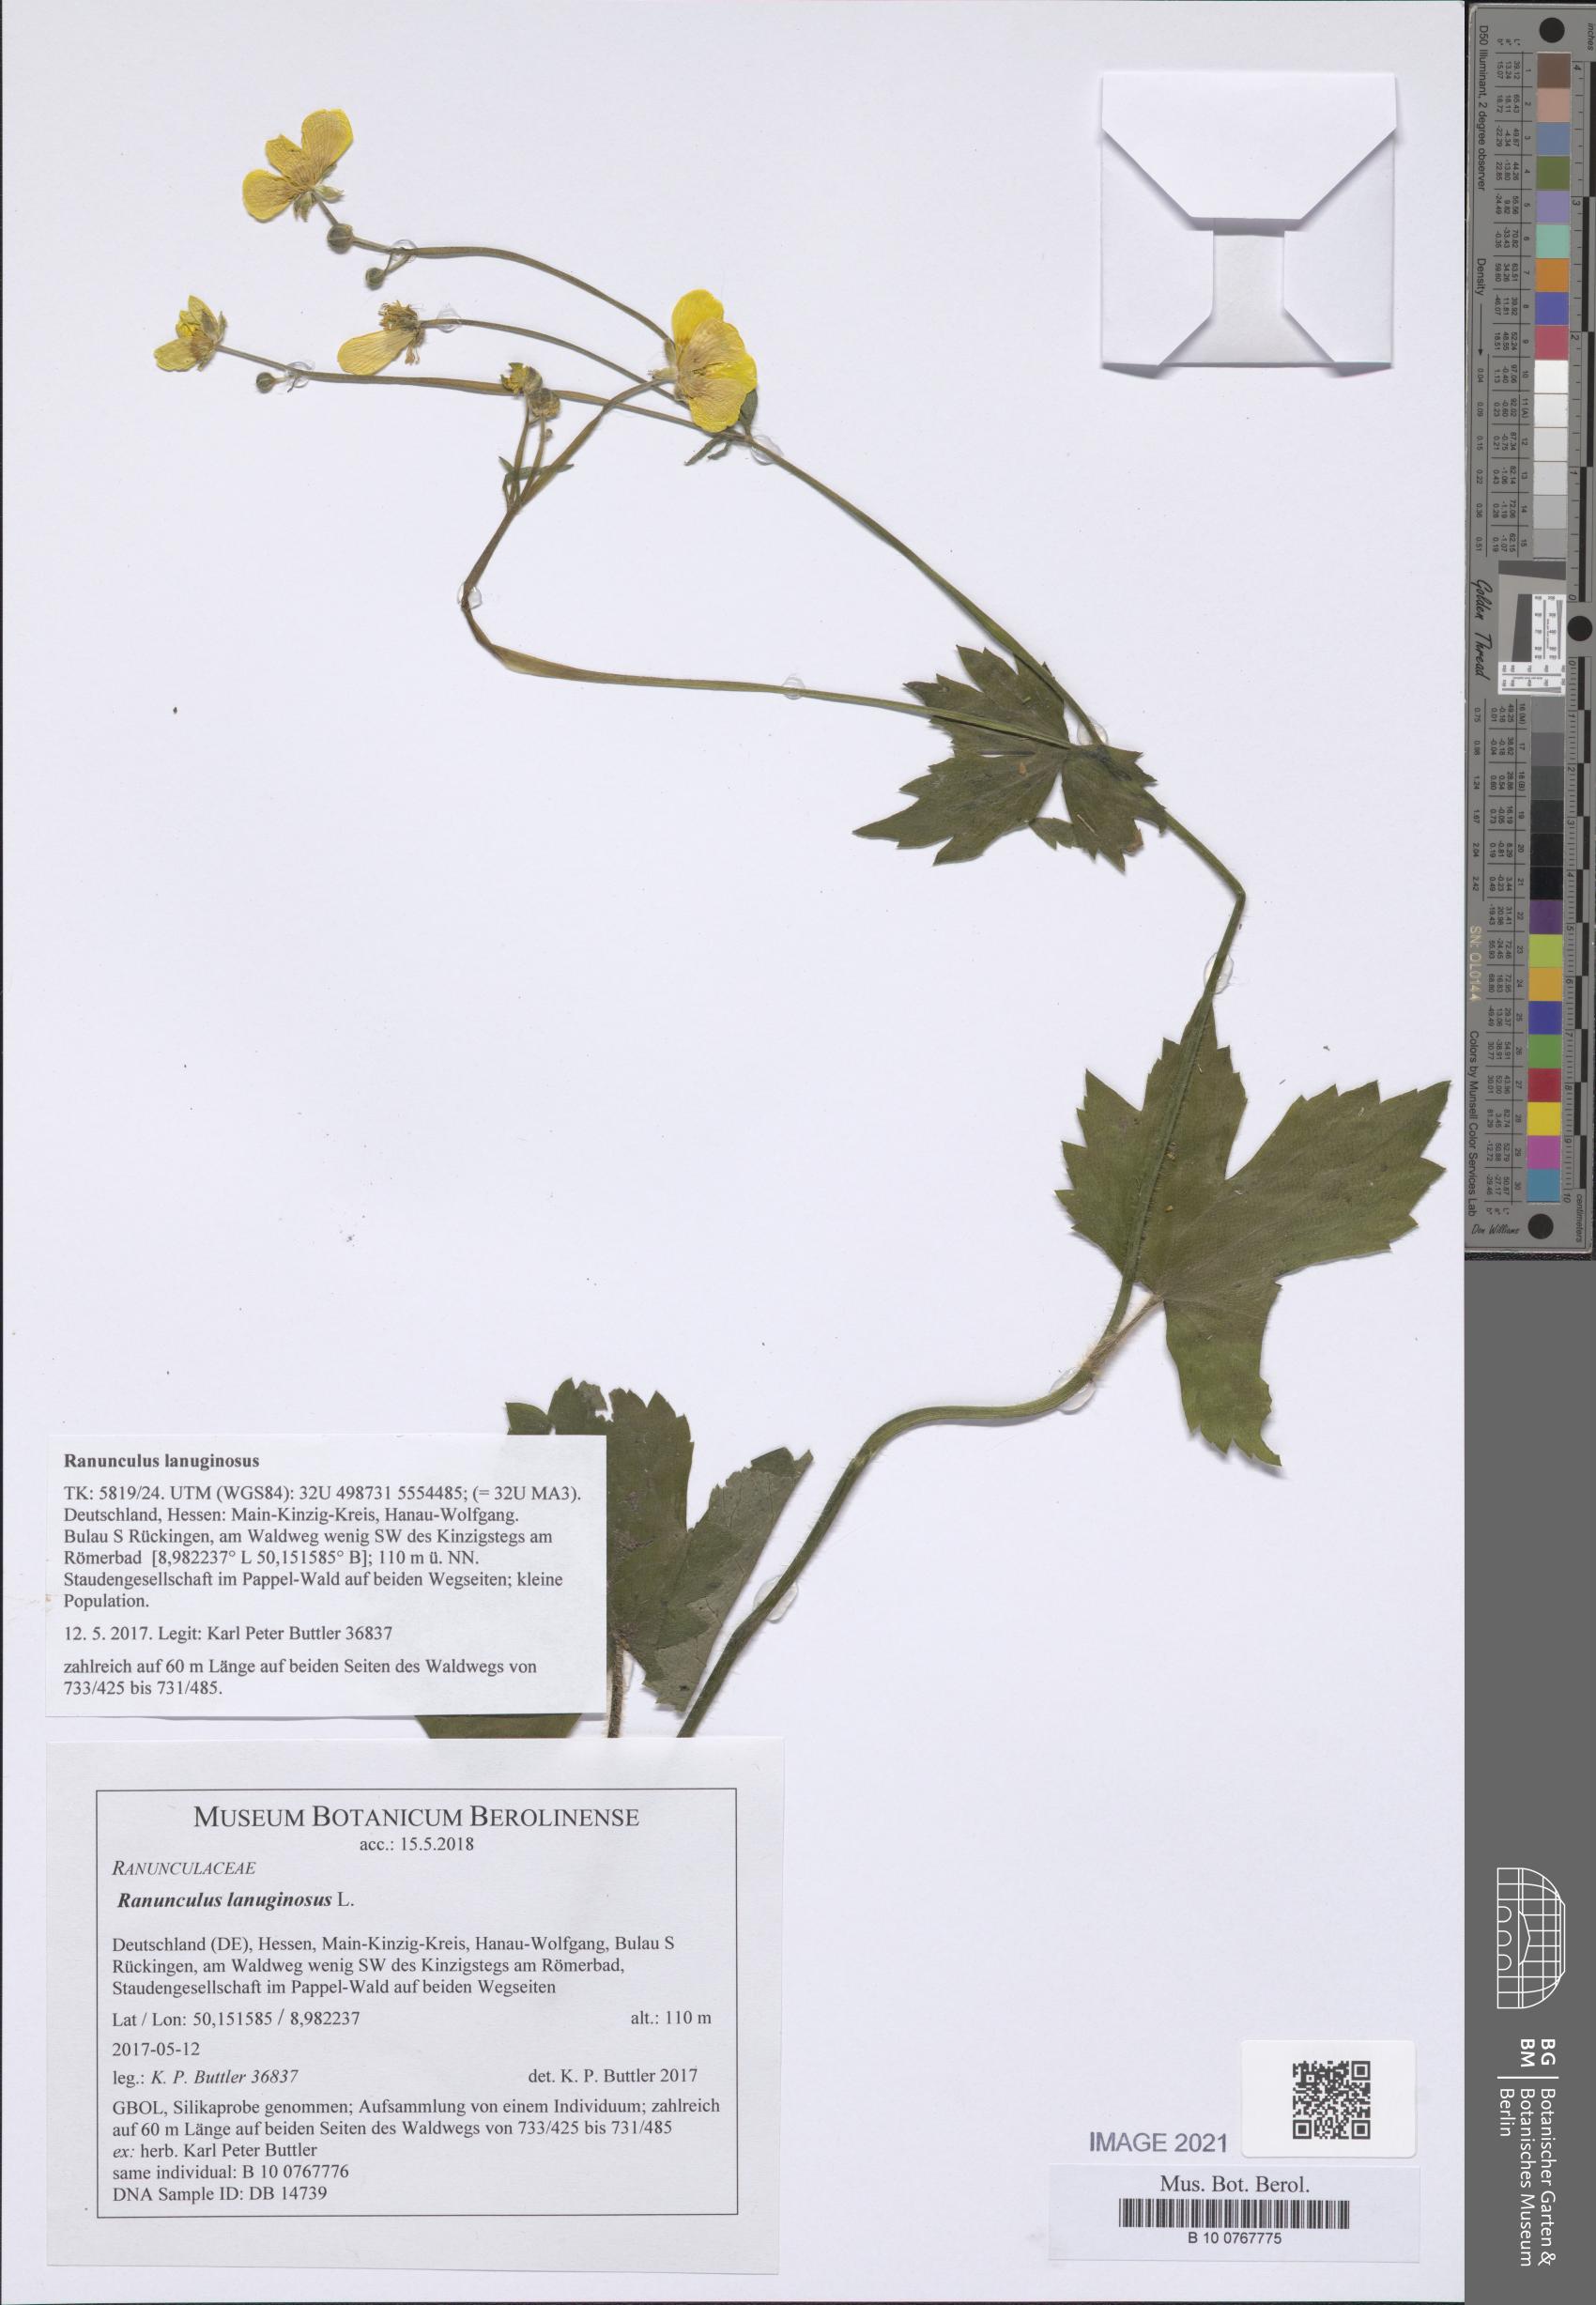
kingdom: Plantae
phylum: Tracheophyta
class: Magnoliopsida
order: Ranunculales
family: Ranunculaceae
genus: Ranunculus
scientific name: Ranunculus lanuginosus
